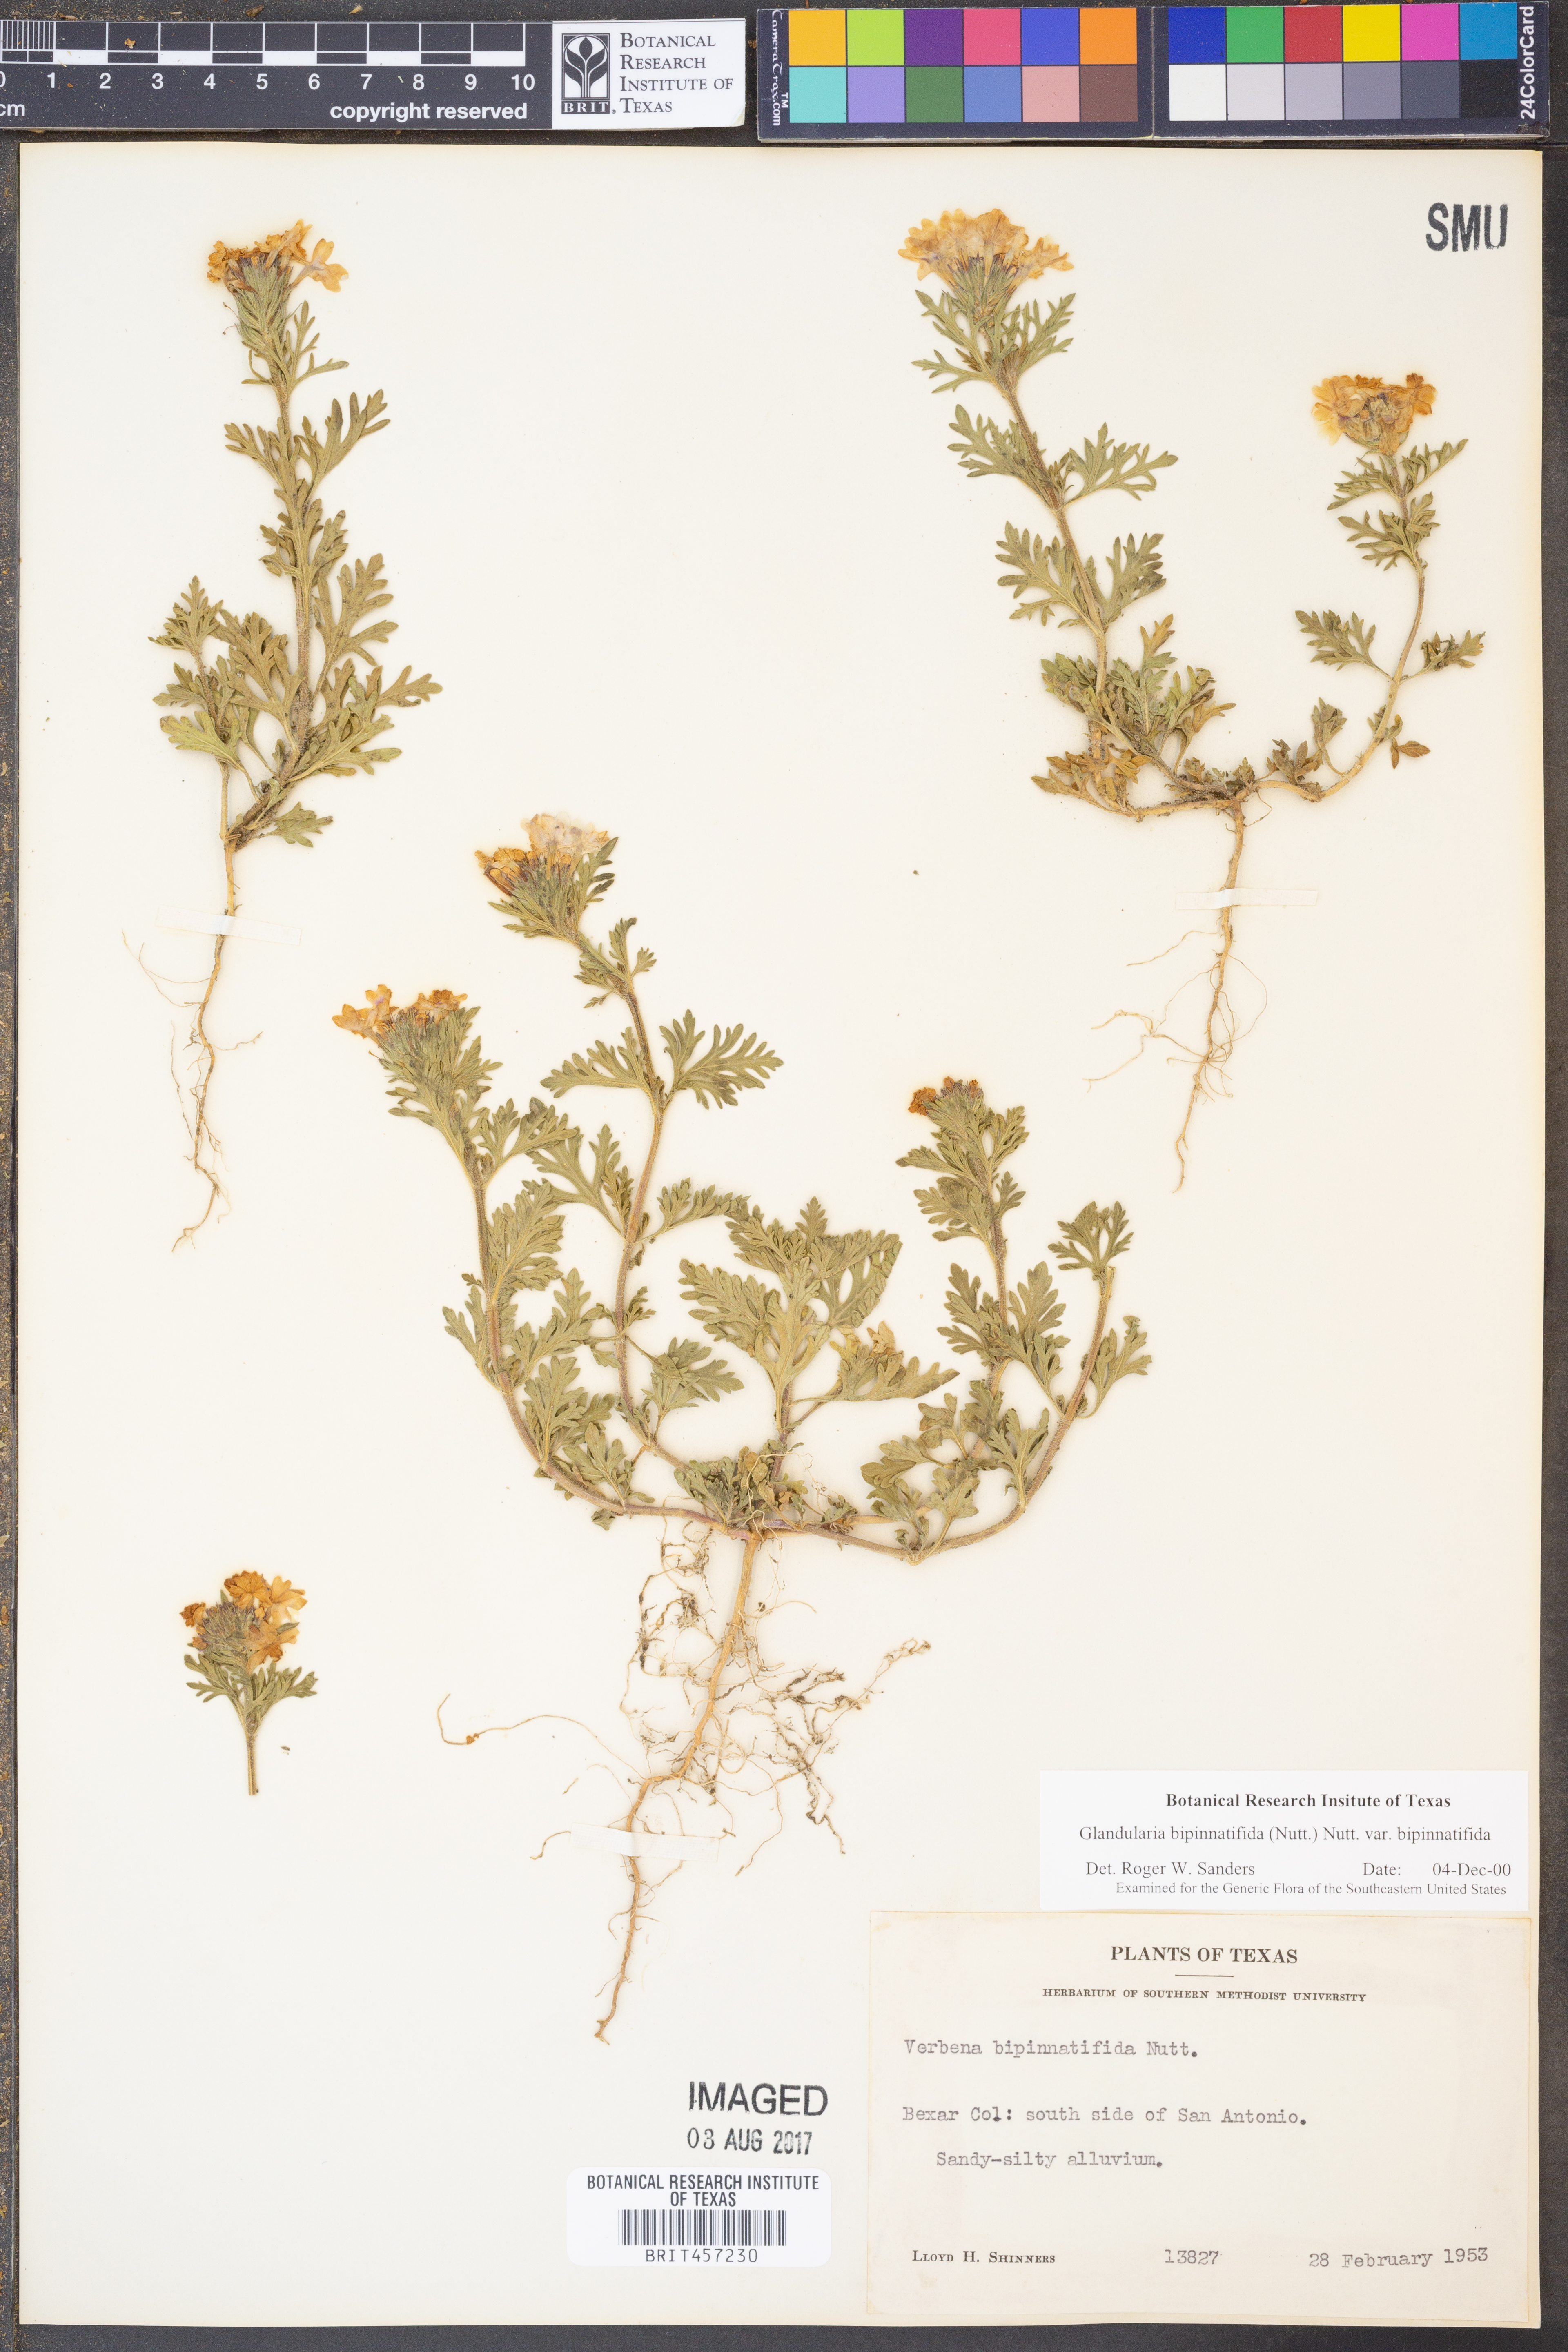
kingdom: Plantae
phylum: Tracheophyta
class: Magnoliopsida
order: Lamiales
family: Verbenaceae
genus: Verbena
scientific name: Verbena bipinnatifida
